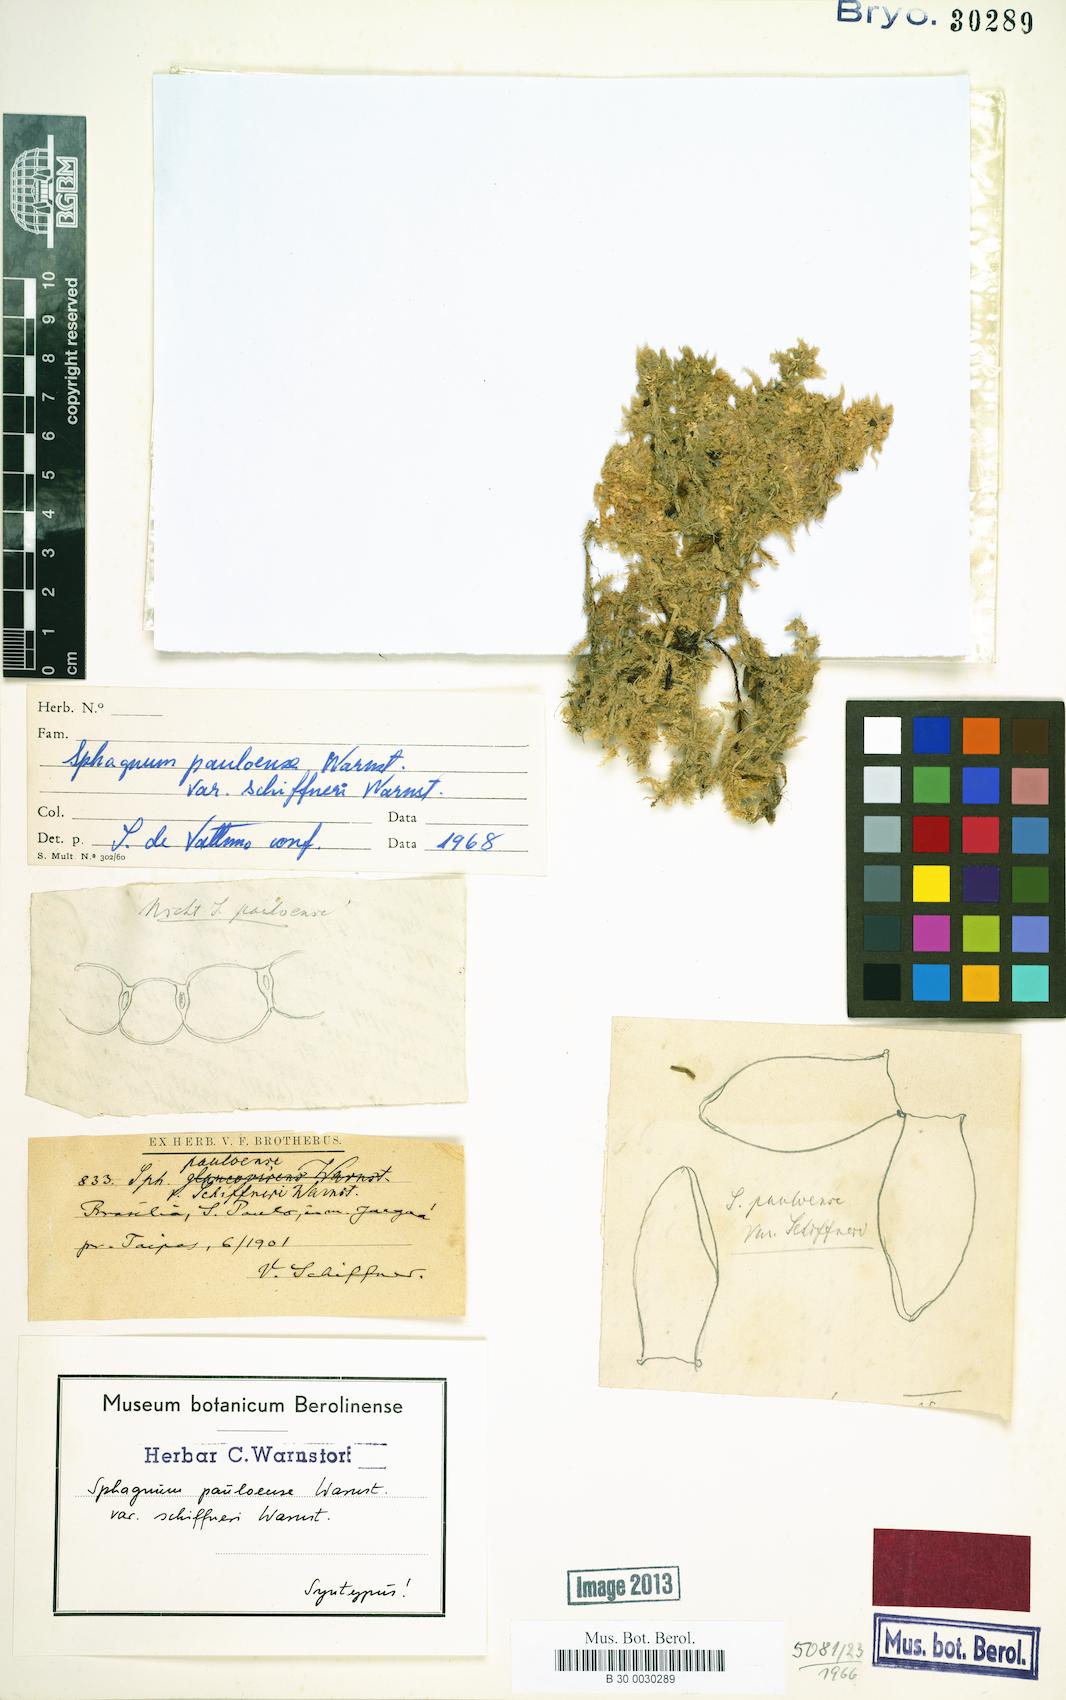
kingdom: Plantae
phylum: Bryophyta
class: Sphagnopsida
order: Sphagnales
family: Sphagnaceae
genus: Sphagnum
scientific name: Sphagnum perichaetiale
